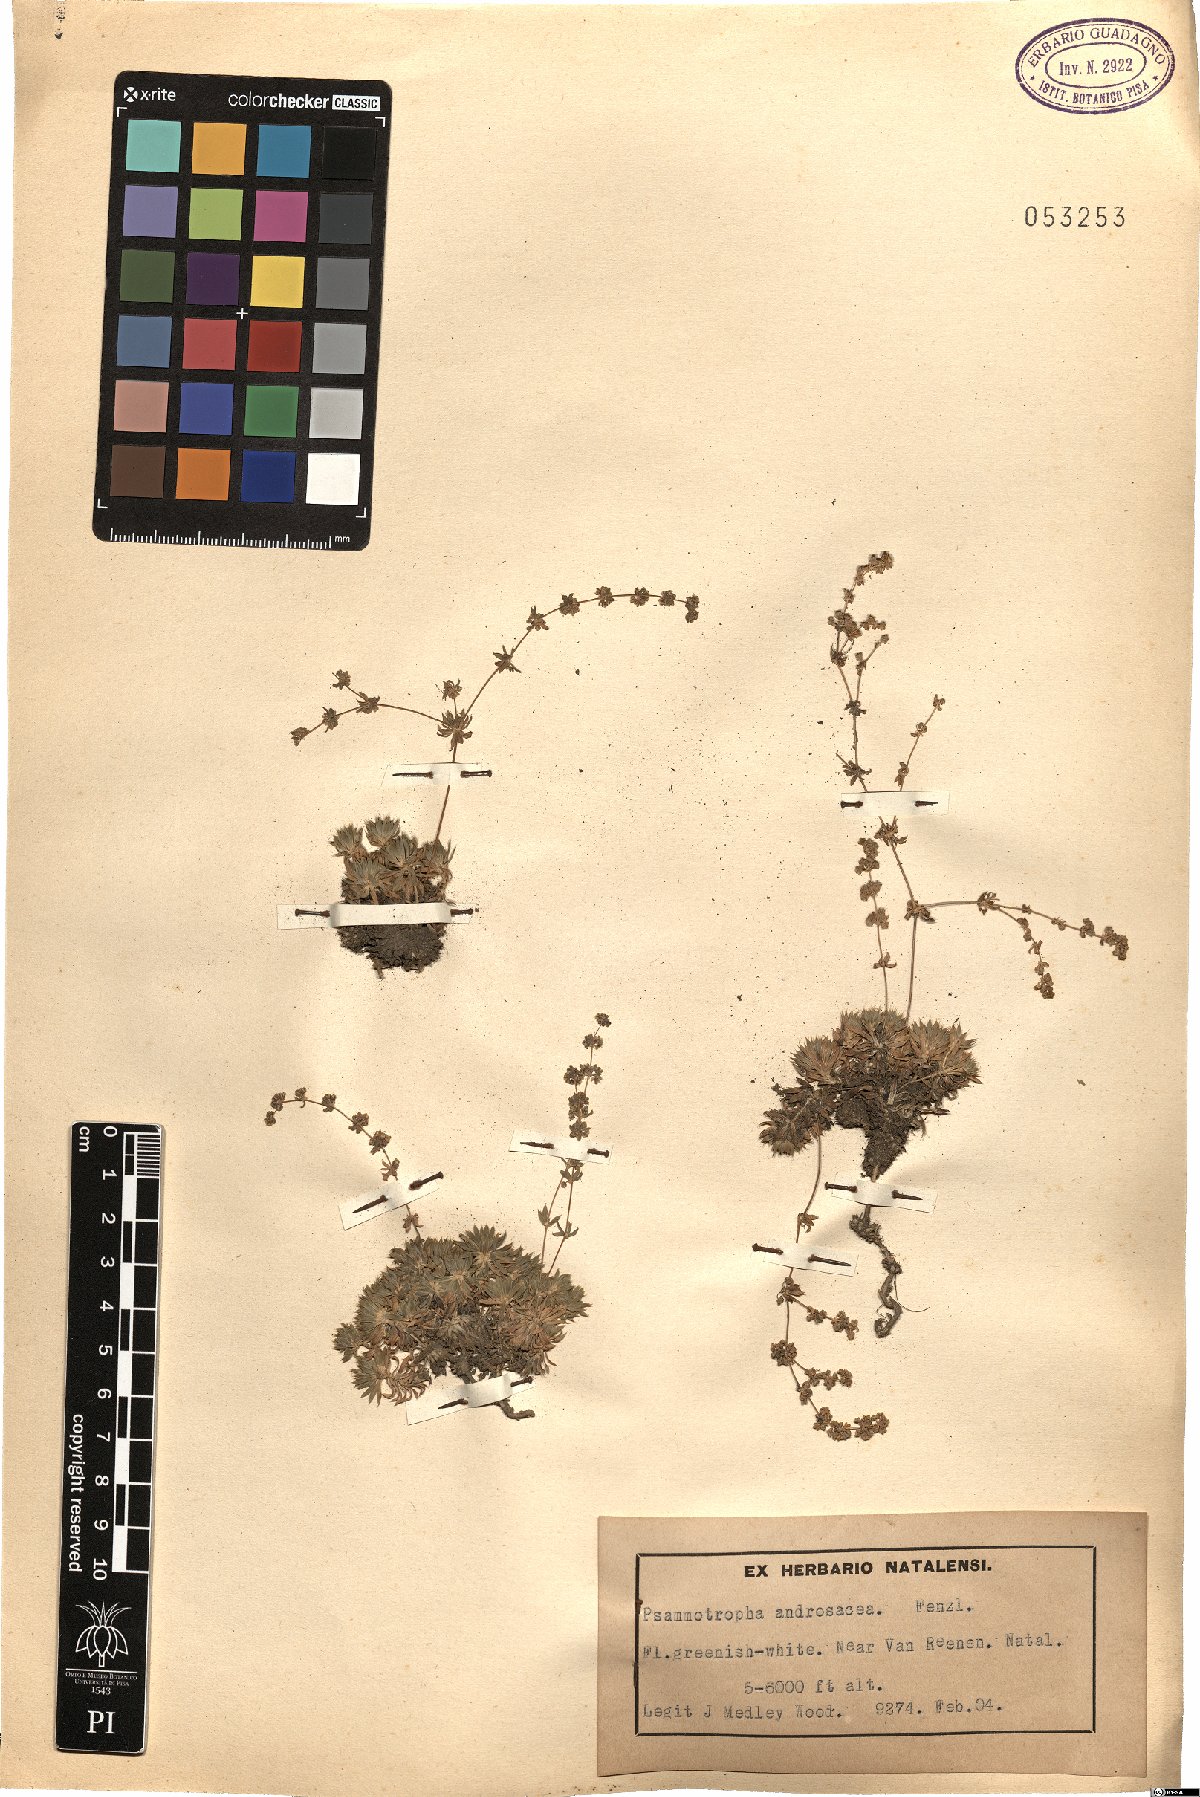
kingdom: Plantae
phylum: Tracheophyta
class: Magnoliopsida
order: Caryophyllales
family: Molluginaceae
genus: Psammotropha
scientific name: Psammotropha mucronata
